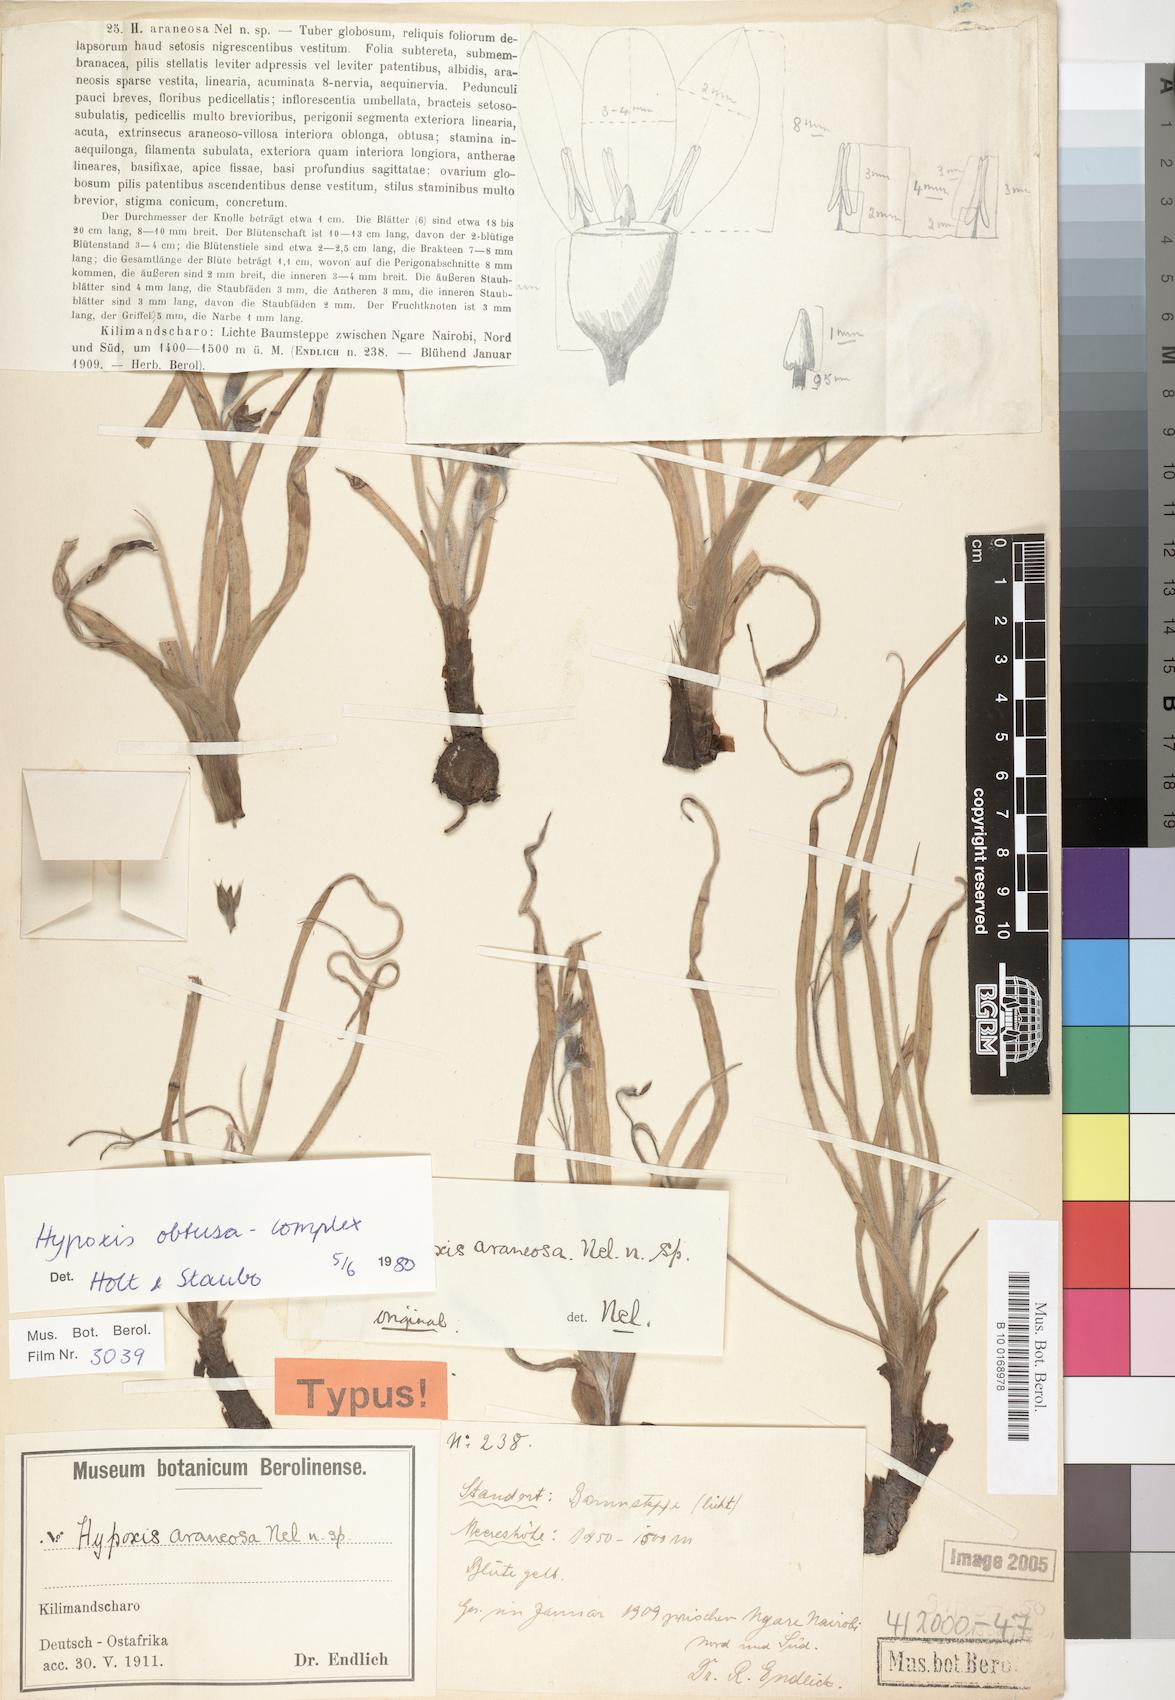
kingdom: Plantae
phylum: Tracheophyta
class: Liliopsida
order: Asparagales
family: Hypoxidaceae
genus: Hypoxis
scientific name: Hypoxis
